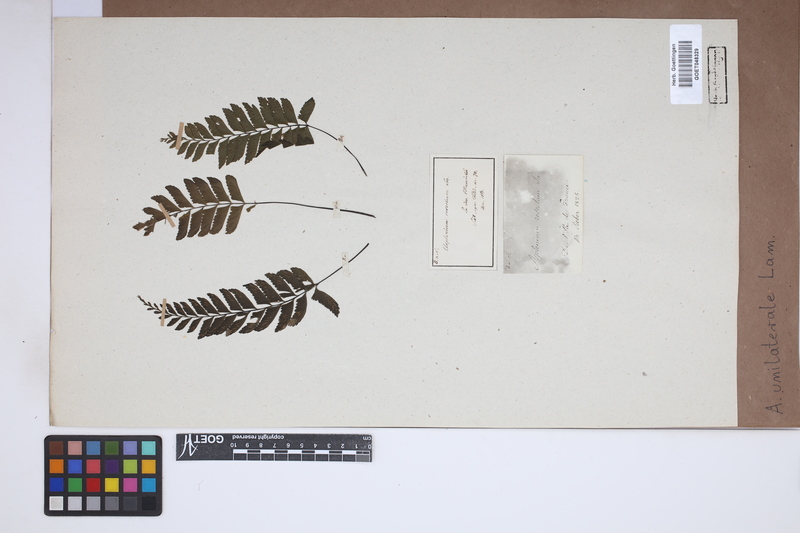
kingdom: Plantae
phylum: Tracheophyta
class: Polypodiopsida
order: Polypodiales
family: Aspleniaceae
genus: Hymenasplenium
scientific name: Hymenasplenium unilaterale
